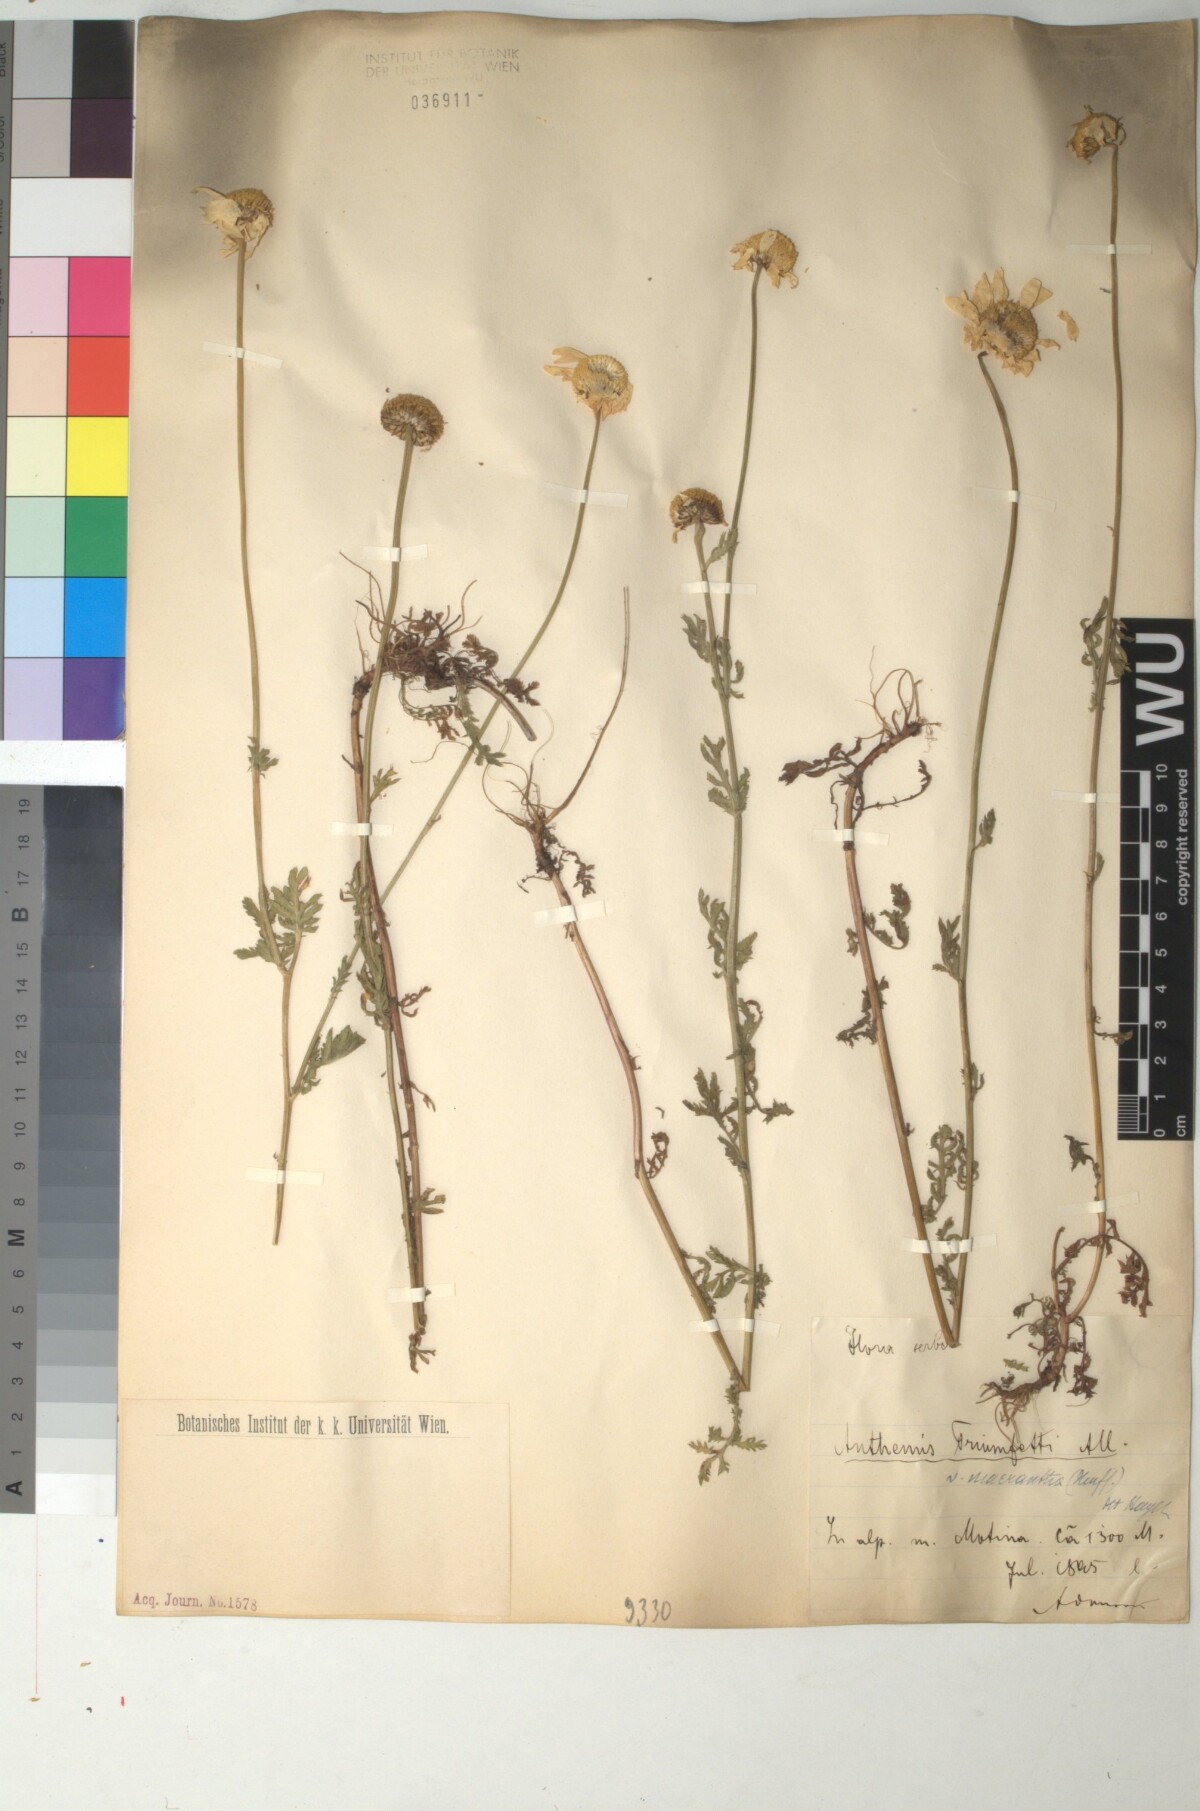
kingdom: Plantae
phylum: Tracheophyta
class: Magnoliopsida
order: Asterales
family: Asteraceae
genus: Cota
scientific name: Cota triumfetti
